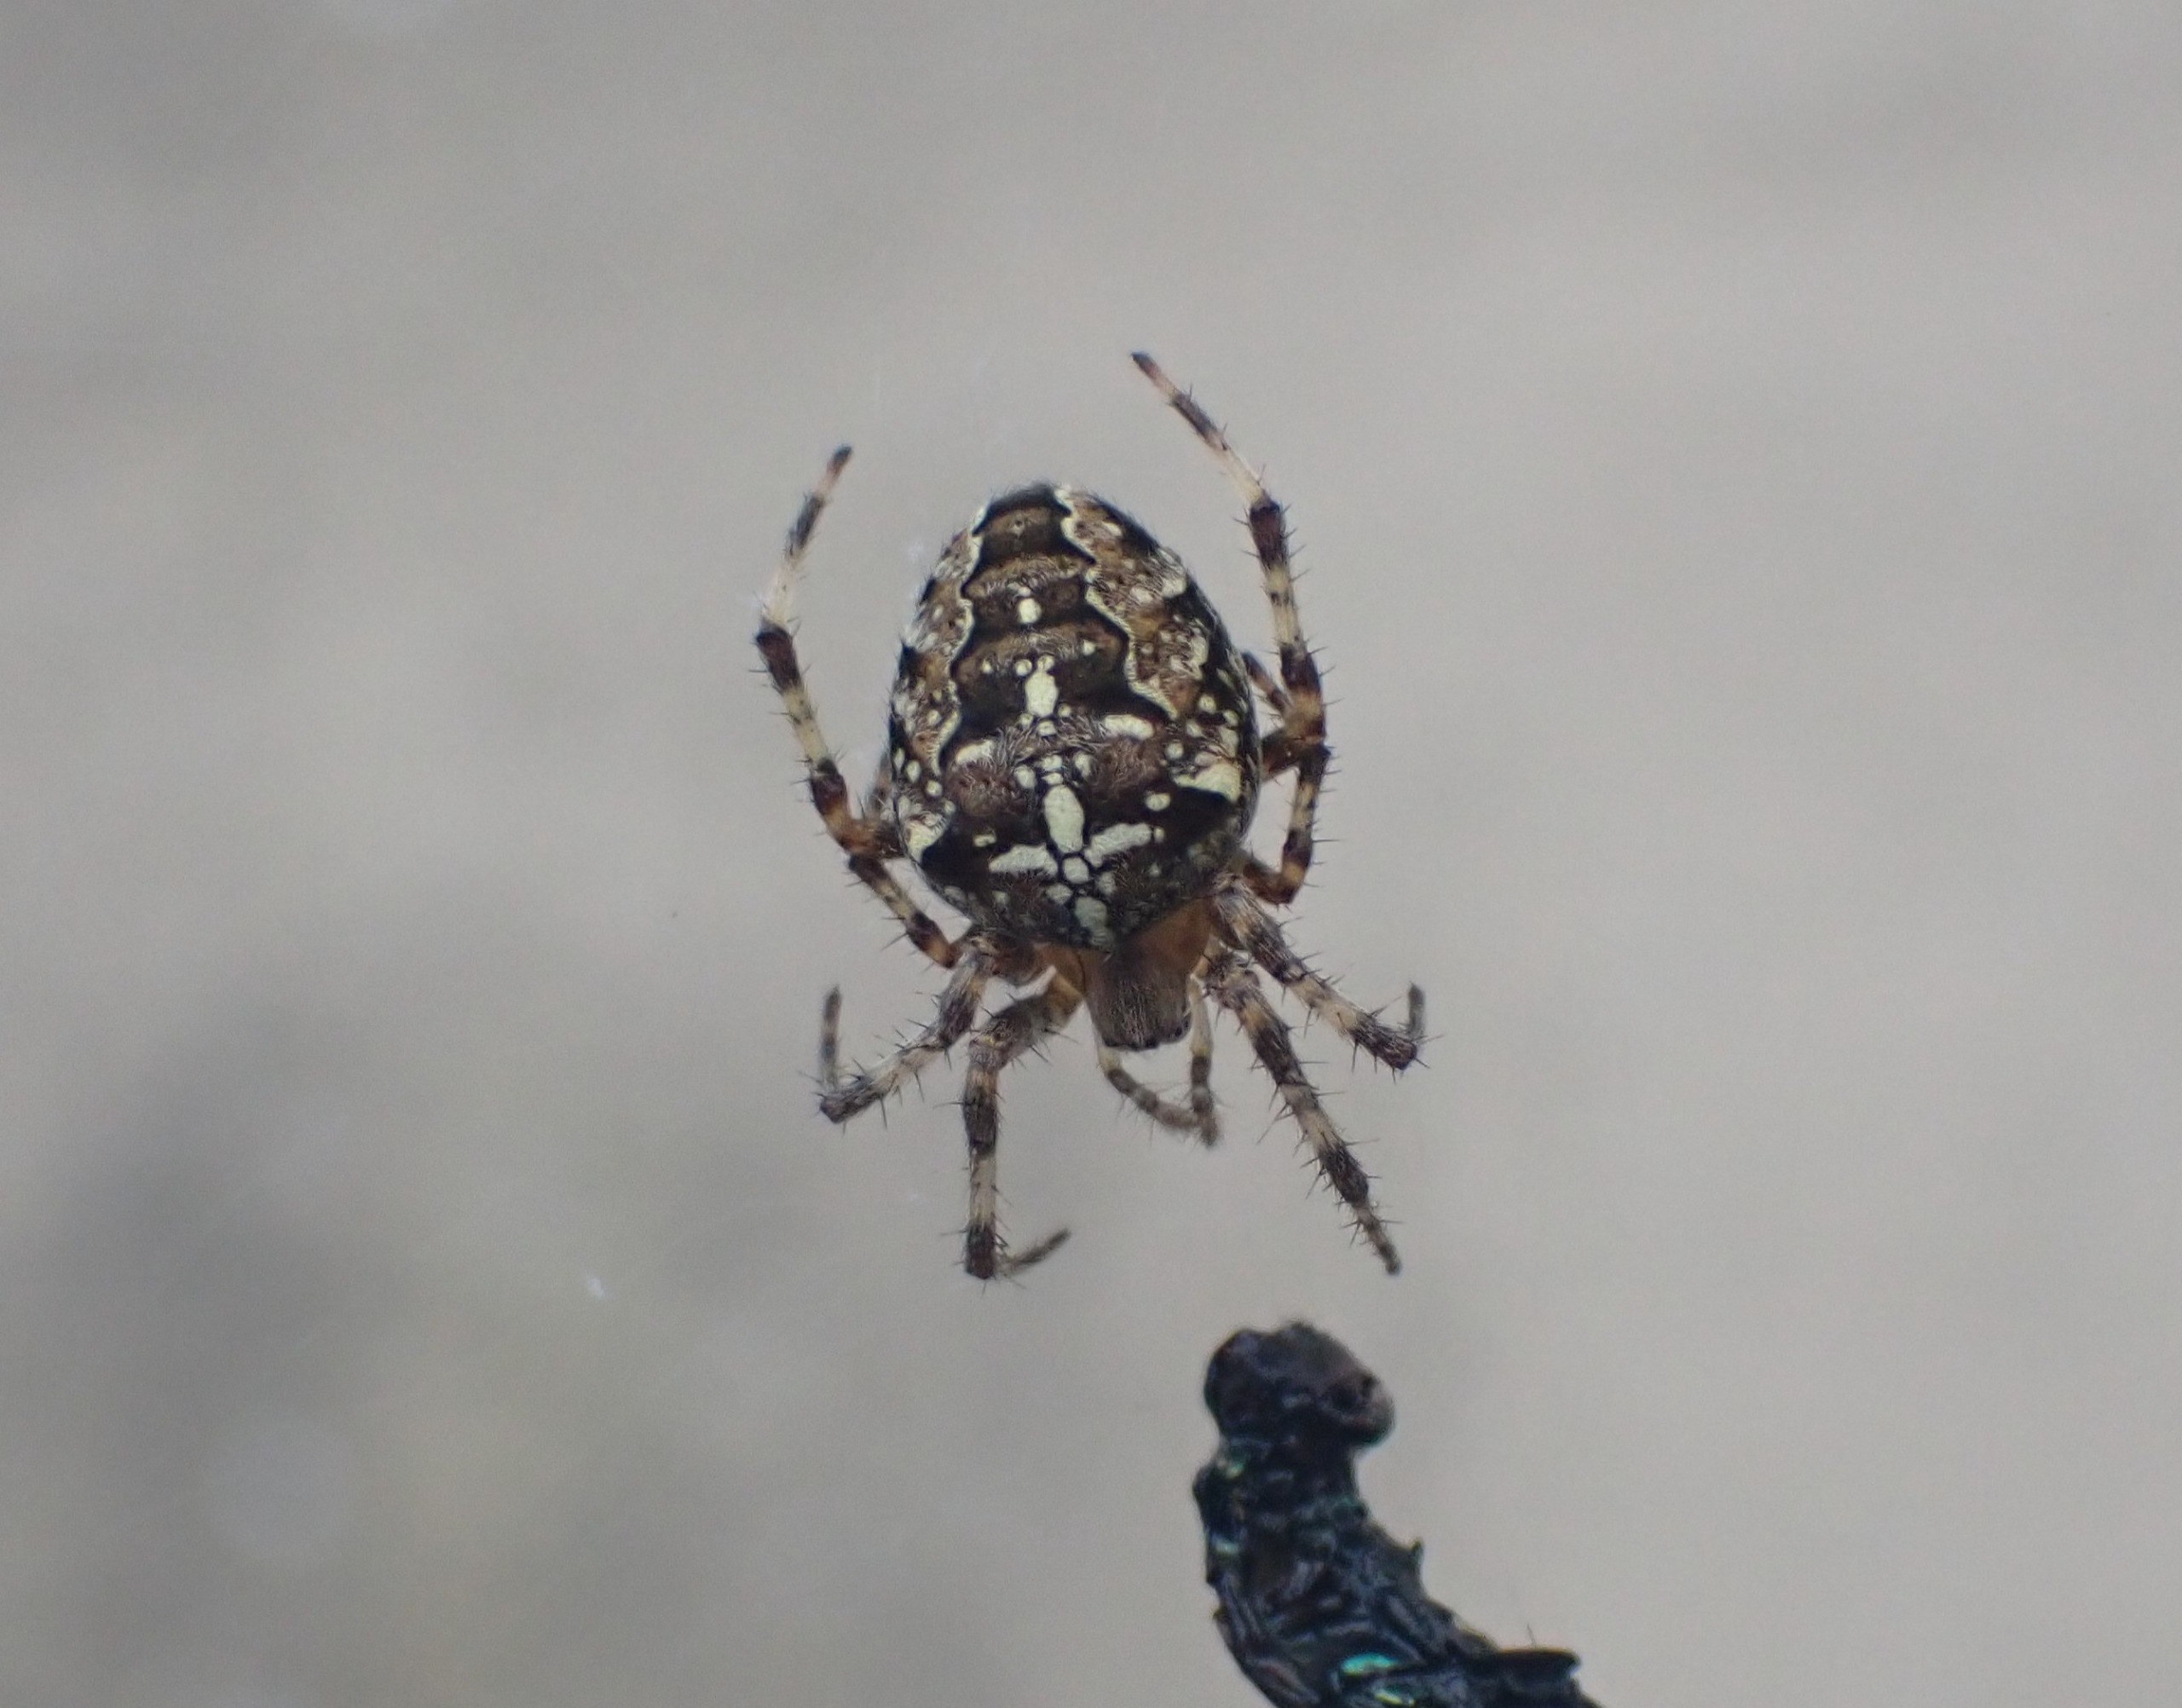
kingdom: Animalia
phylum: Arthropoda
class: Arachnida
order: Araneae
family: Araneidae
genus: Araneus
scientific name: Araneus diadematus
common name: Korsedderkop
